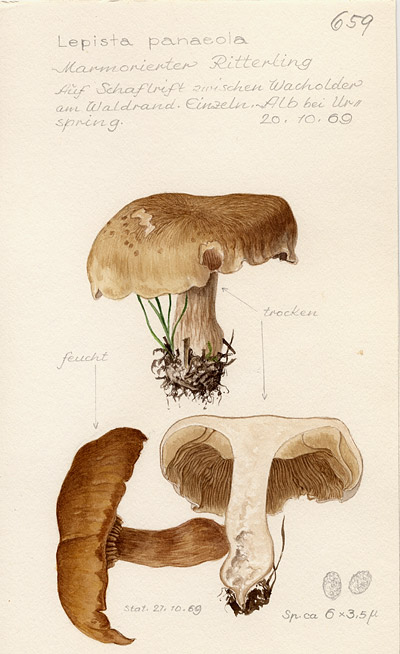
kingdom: Fungi
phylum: Basidiomycota
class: Agaricomycetes
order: Agaricales
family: Tricholomataceae
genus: Lepista
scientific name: Lepista luscina
